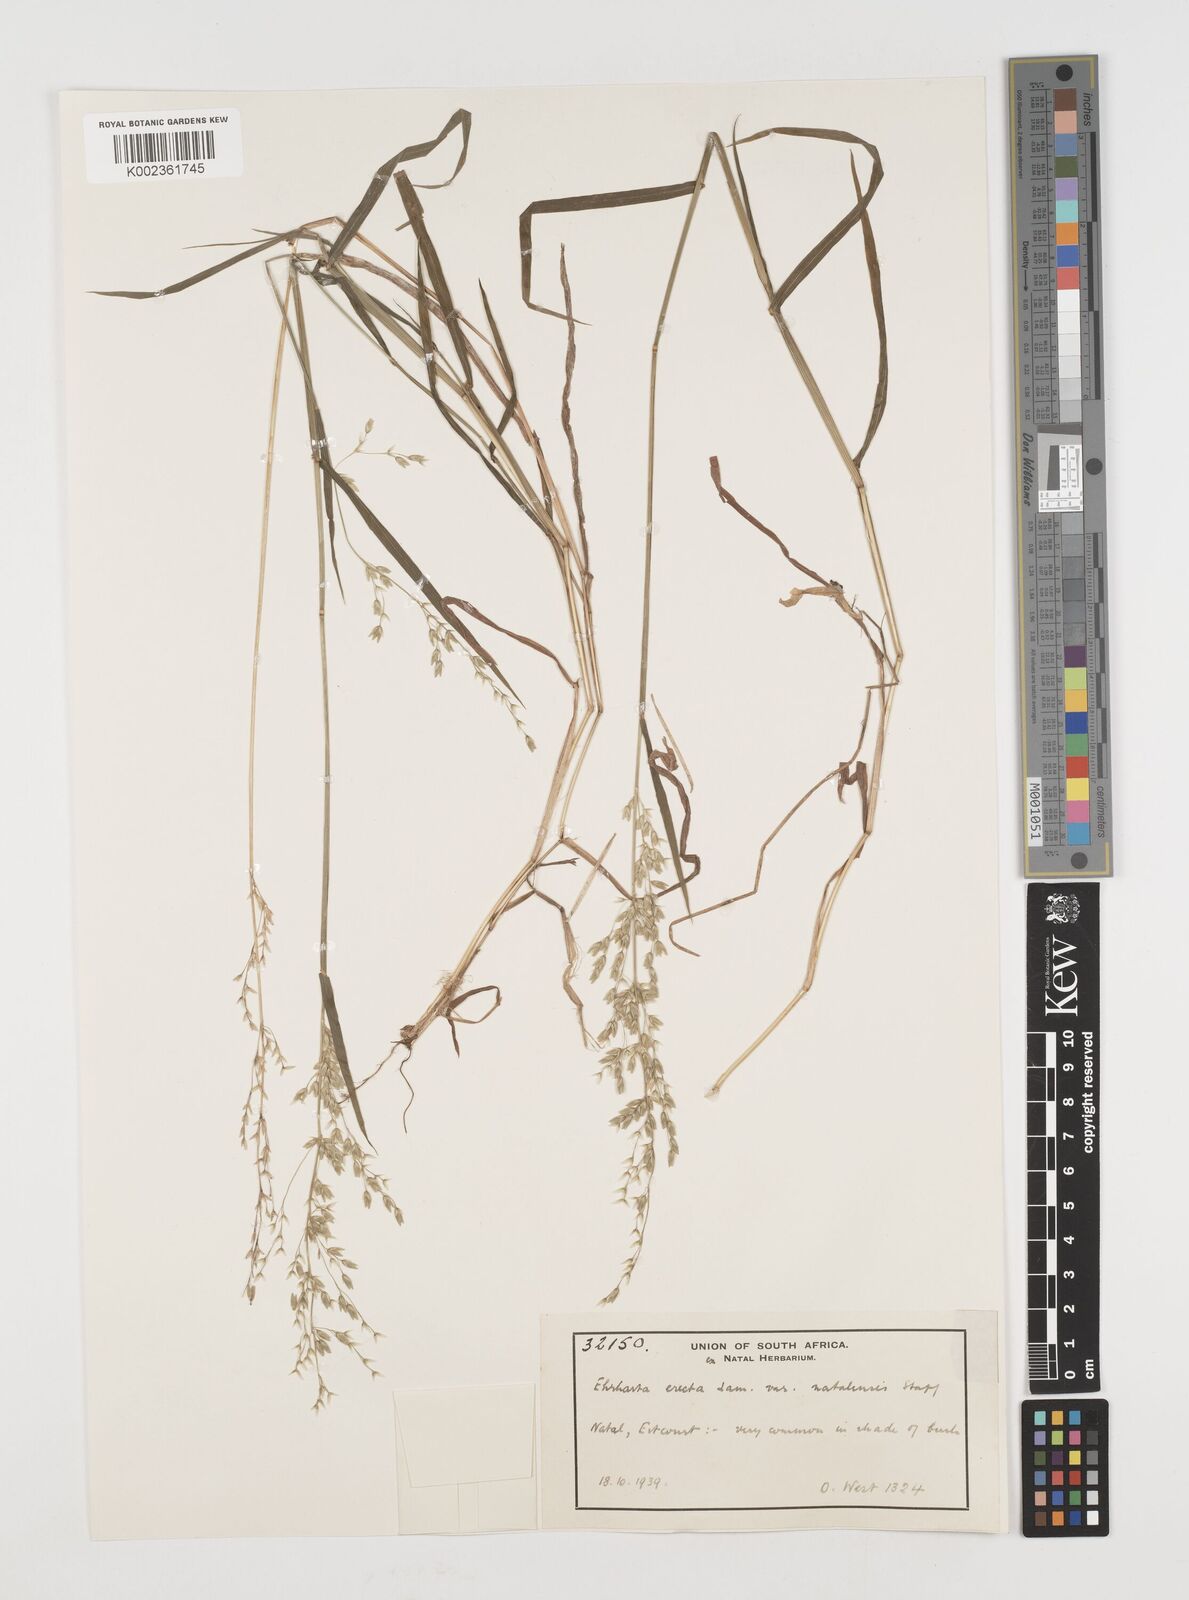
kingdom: Plantae
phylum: Tracheophyta
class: Liliopsida
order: Poales
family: Poaceae
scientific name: Poaceae
